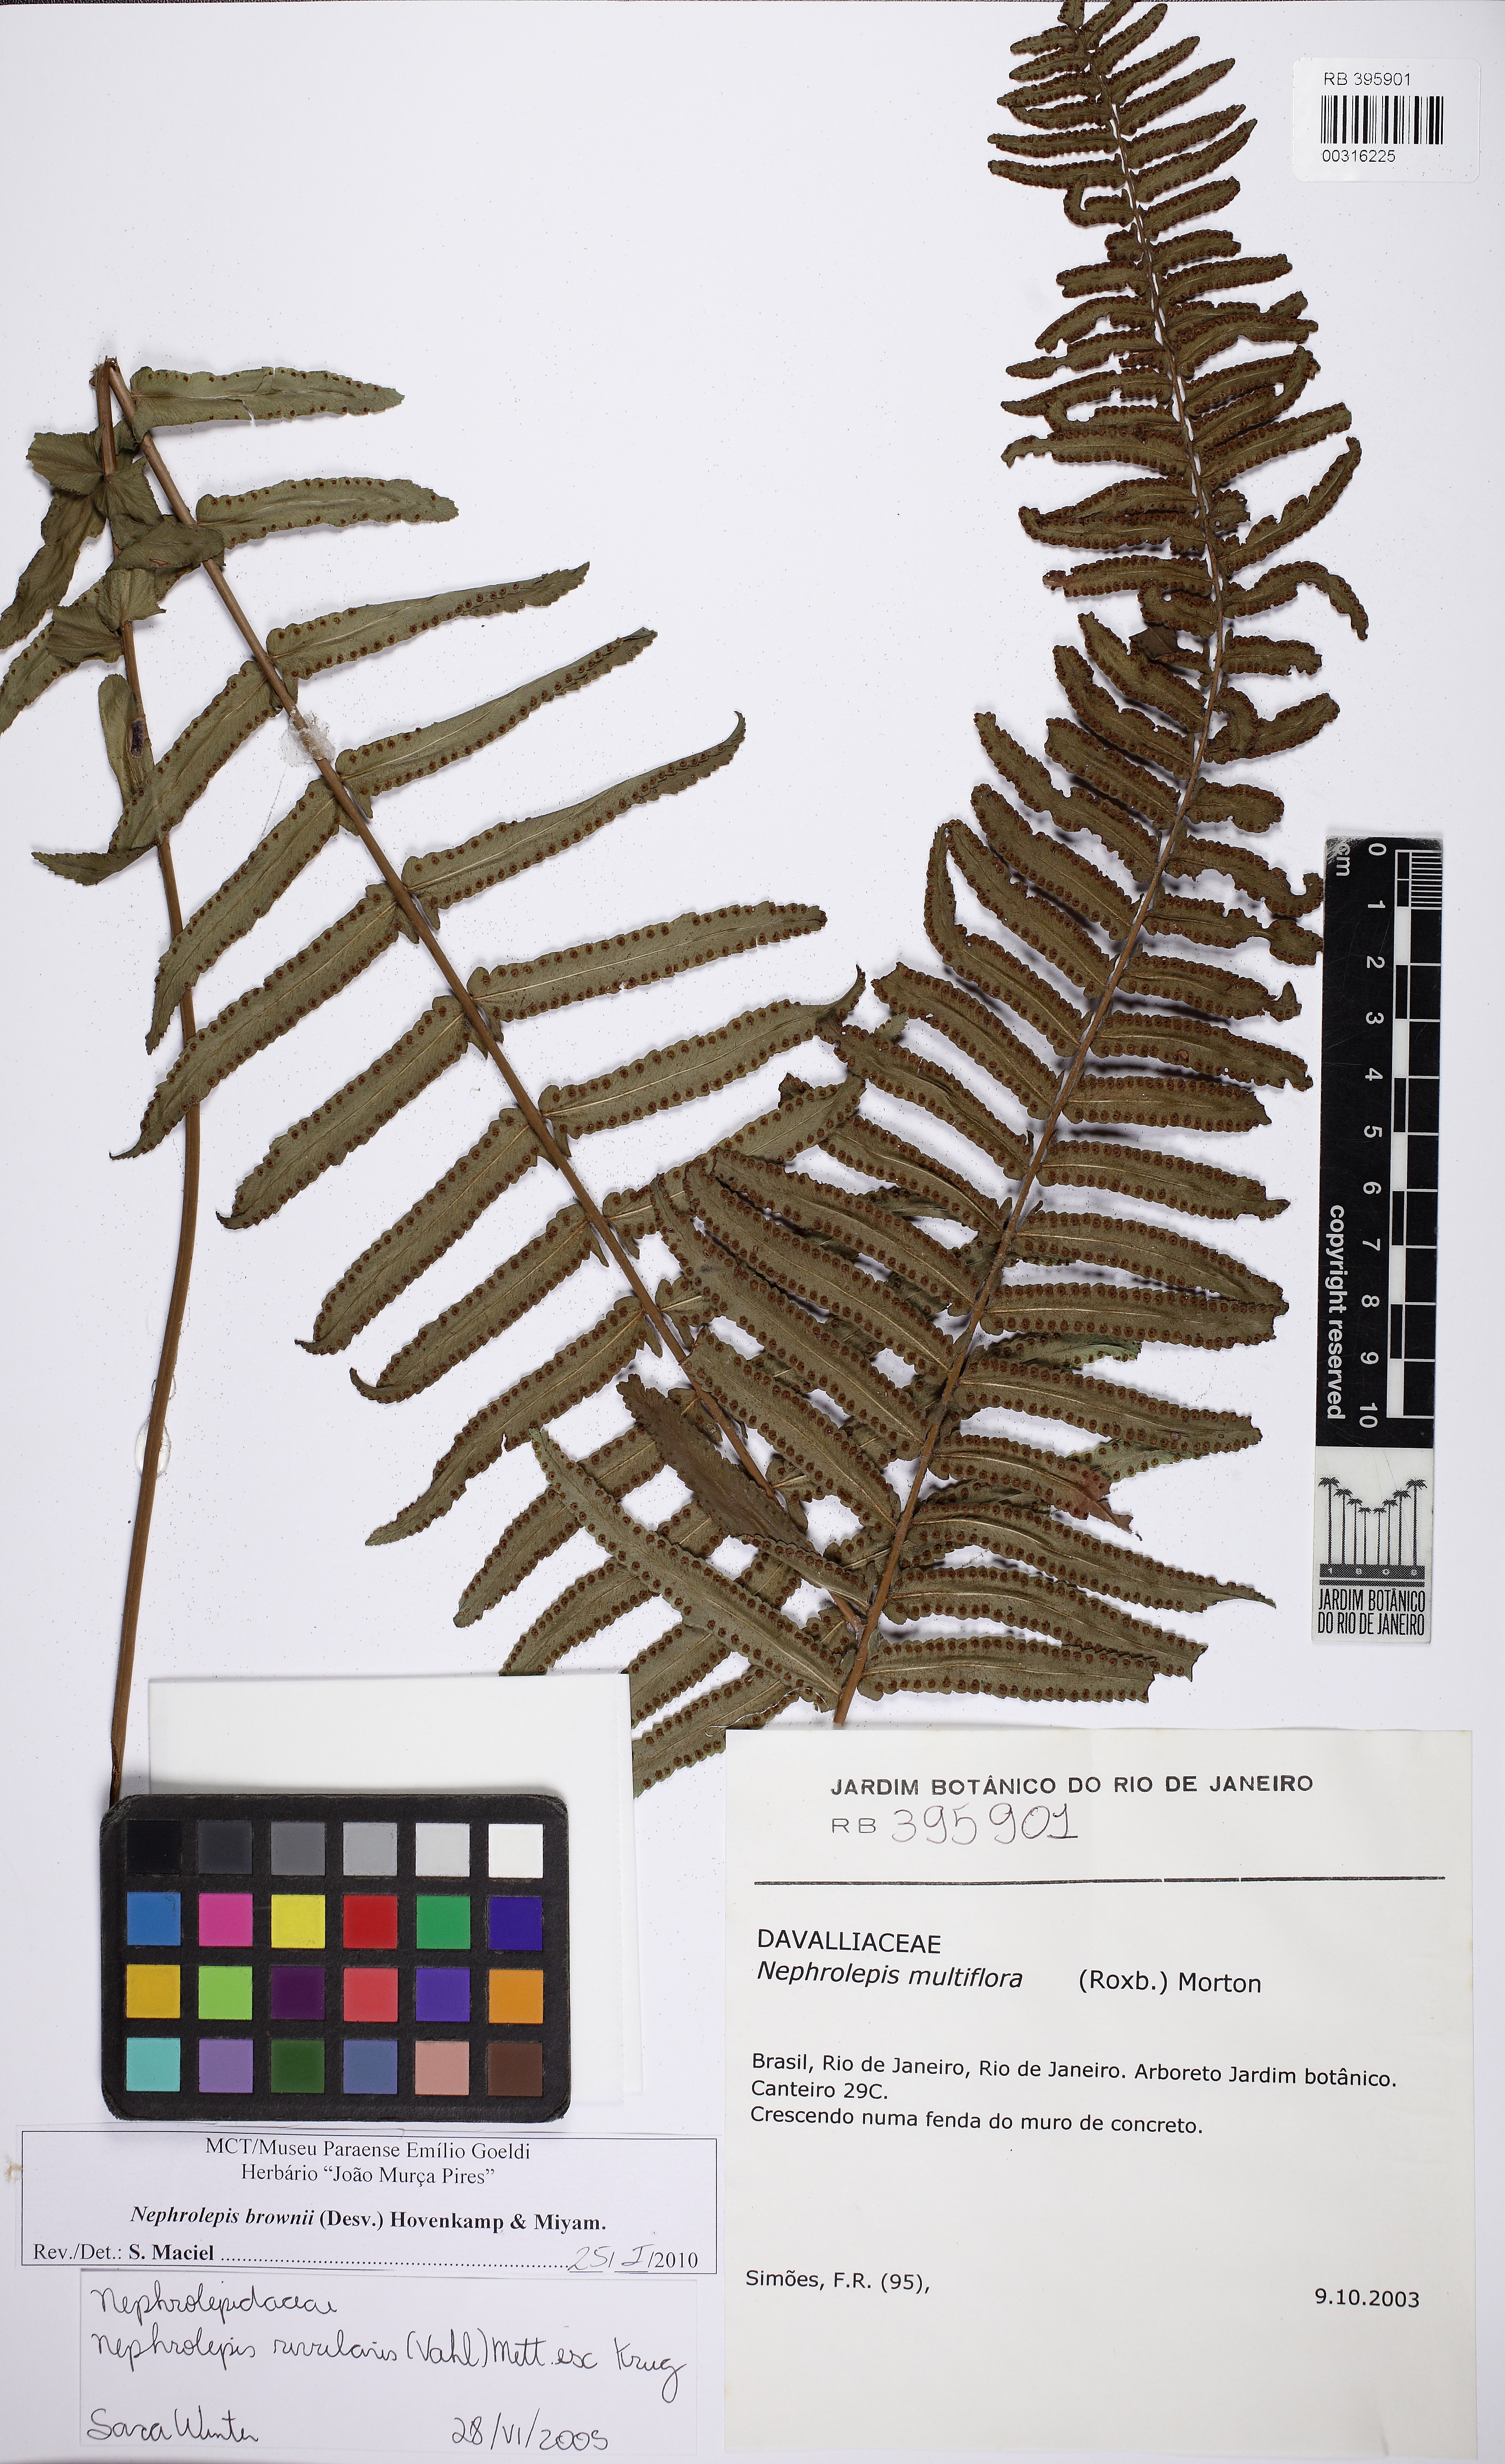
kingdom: Plantae
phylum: Tracheophyta
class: Polypodiopsida
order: Polypodiales
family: Nephrolepidaceae
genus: Nephrolepis
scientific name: Nephrolepis rivularis
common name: Streamside swordfern
